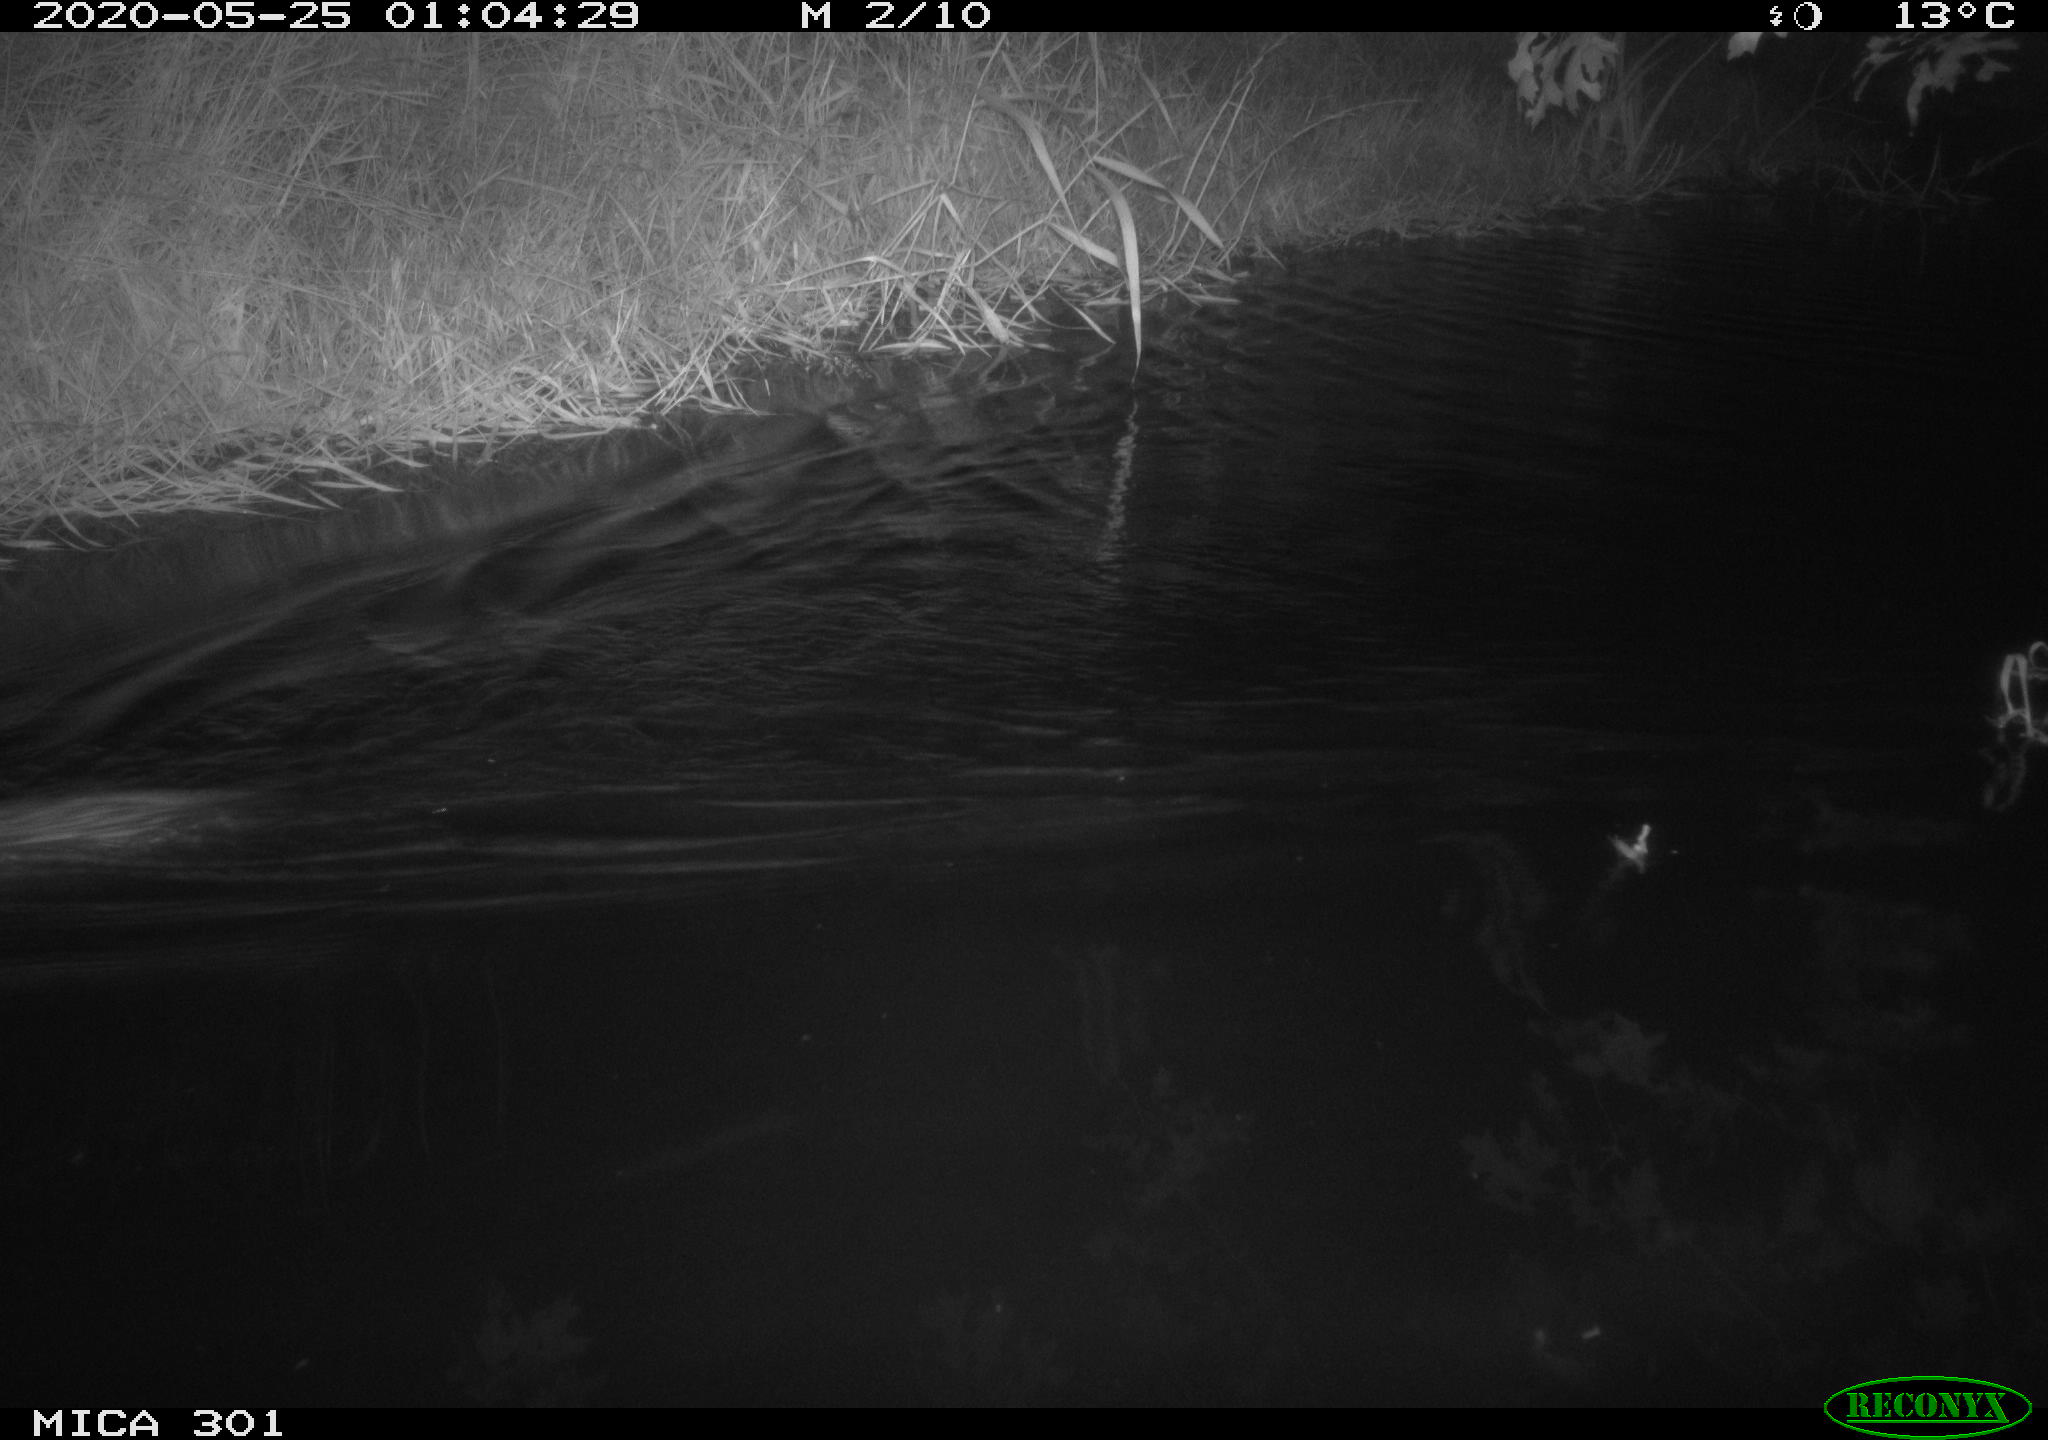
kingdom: Animalia
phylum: Chordata
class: Mammalia
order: Rodentia
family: Castoridae
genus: Castor
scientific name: Castor fiber
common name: Eurasian beaver
